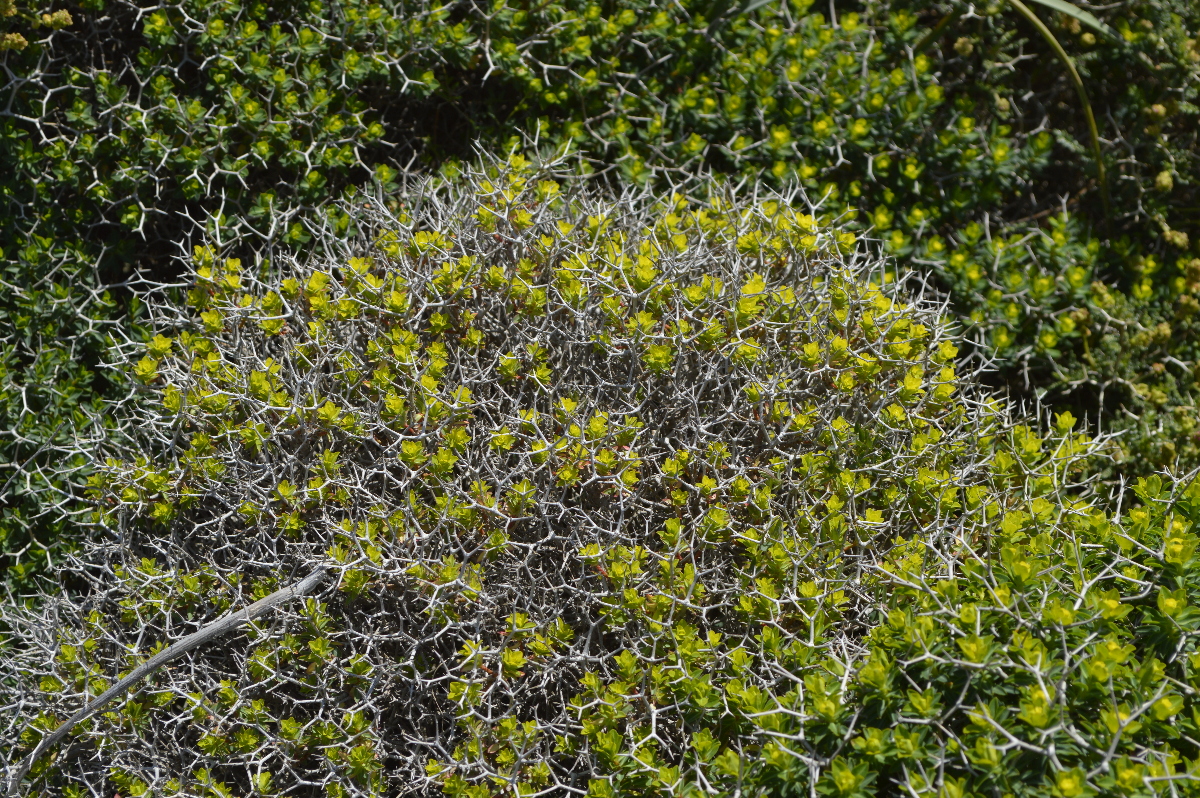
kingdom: Plantae
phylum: Tracheophyta
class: Magnoliopsida
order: Malpighiales
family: Euphorbiaceae
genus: Euphorbia
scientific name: Euphorbia acanthothamnos
